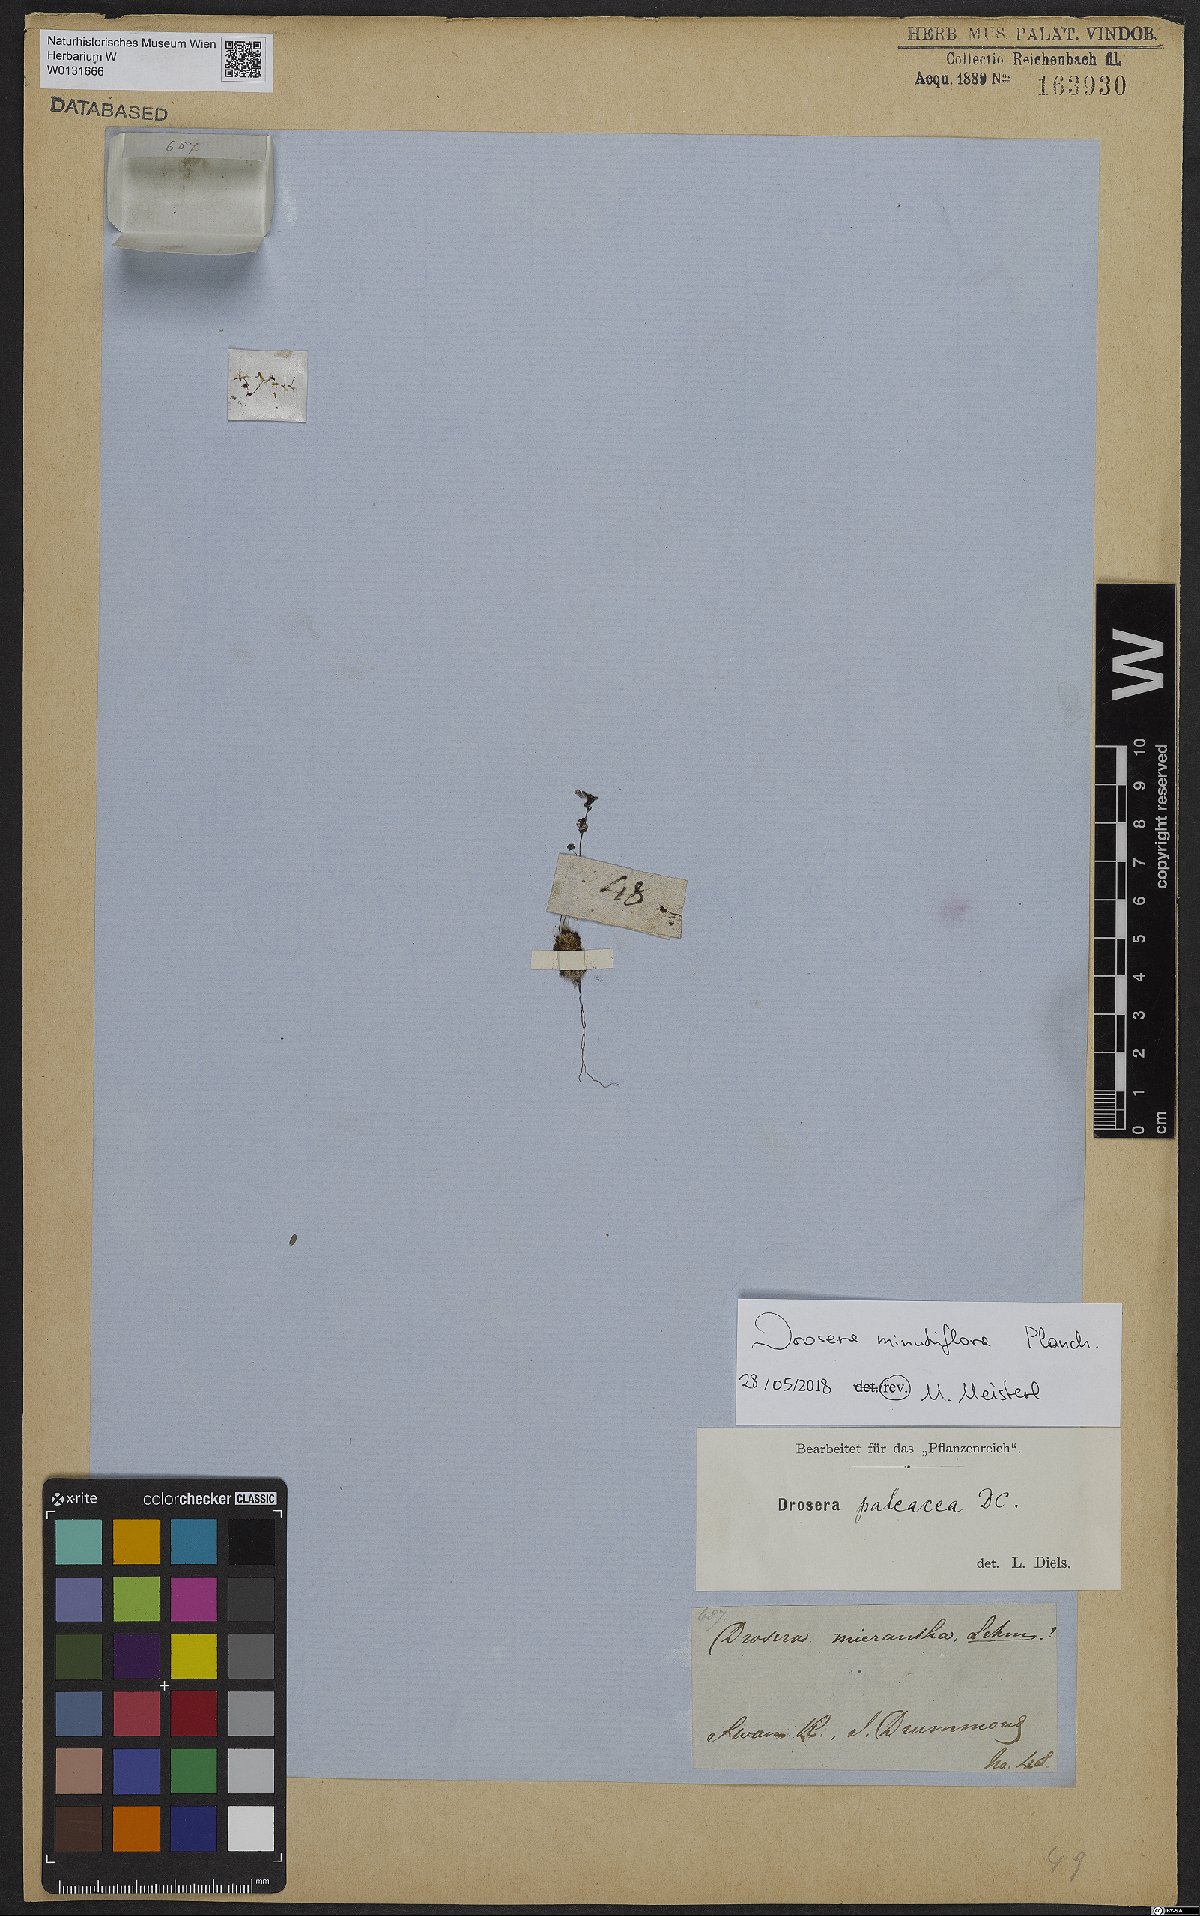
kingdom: Plantae
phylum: Tracheophyta
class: Magnoliopsida
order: Caryophyllales
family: Droseraceae
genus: Drosera
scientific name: Drosera paleacea
